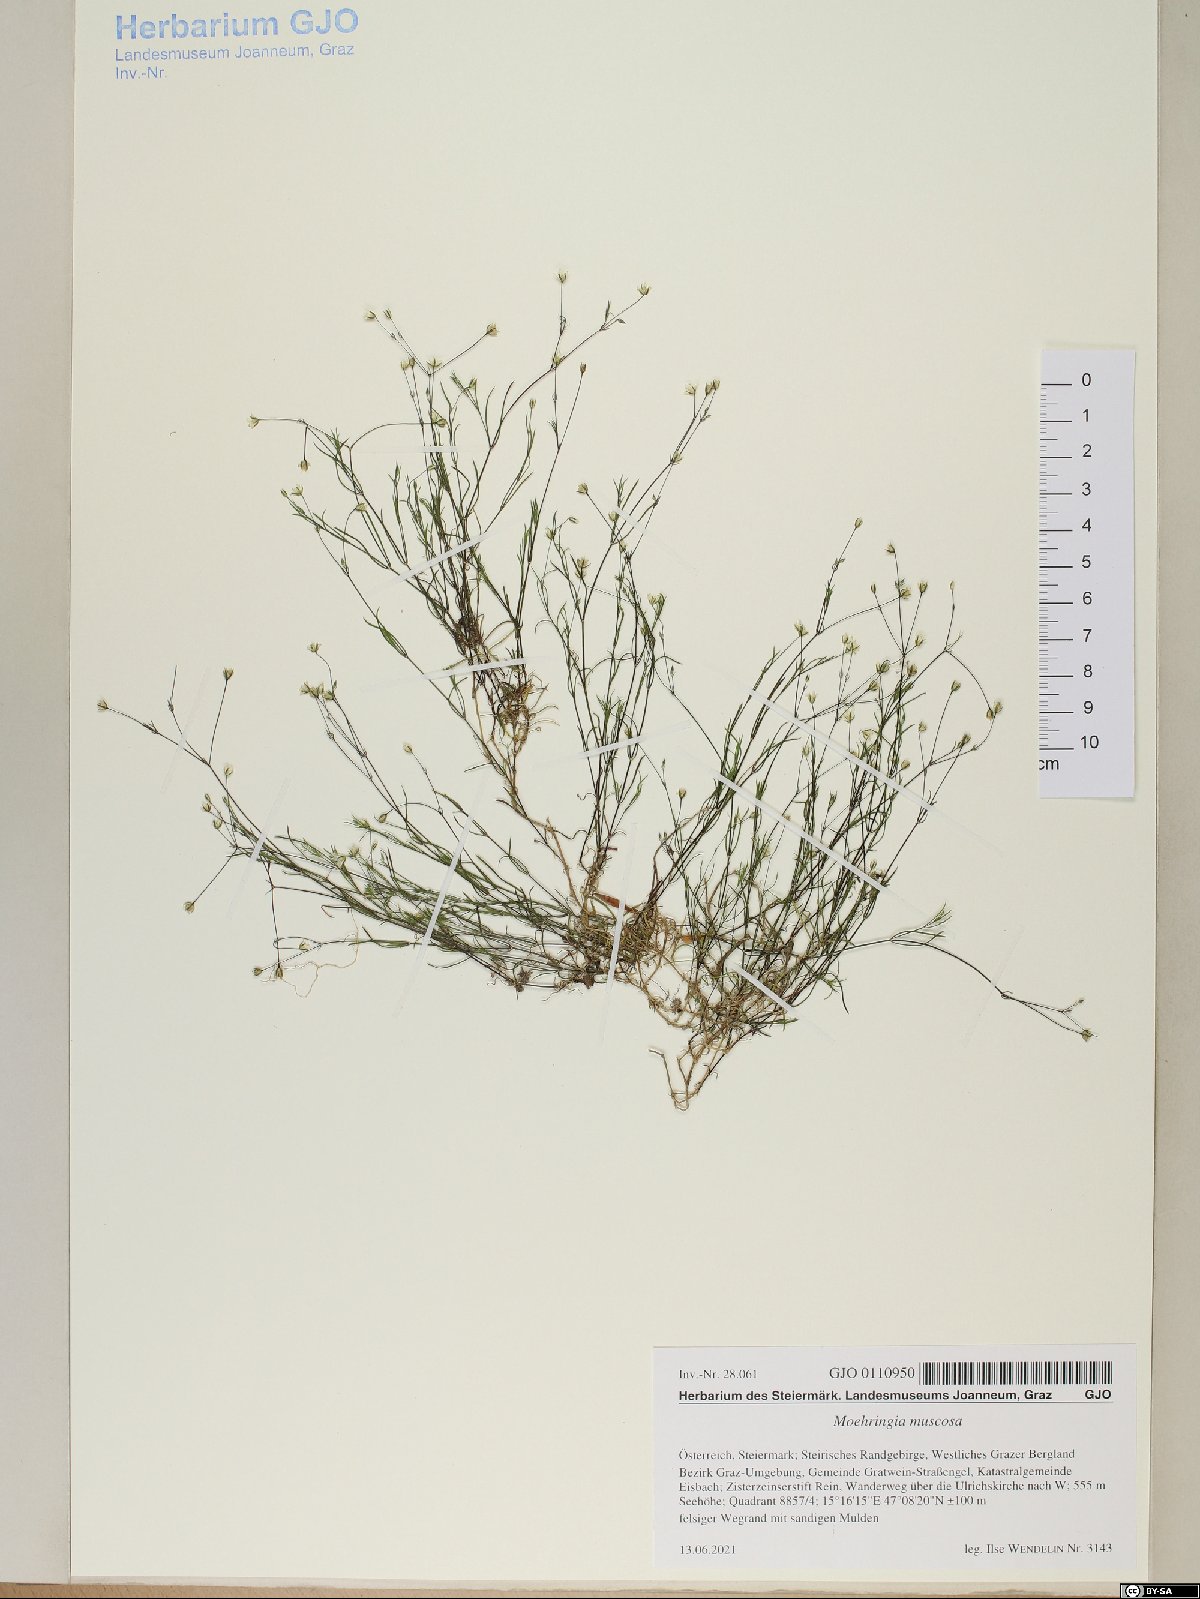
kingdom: Plantae
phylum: Tracheophyta
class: Magnoliopsida
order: Caryophyllales
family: Caryophyllaceae
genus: Moehringia
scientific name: Moehringia muscosa
